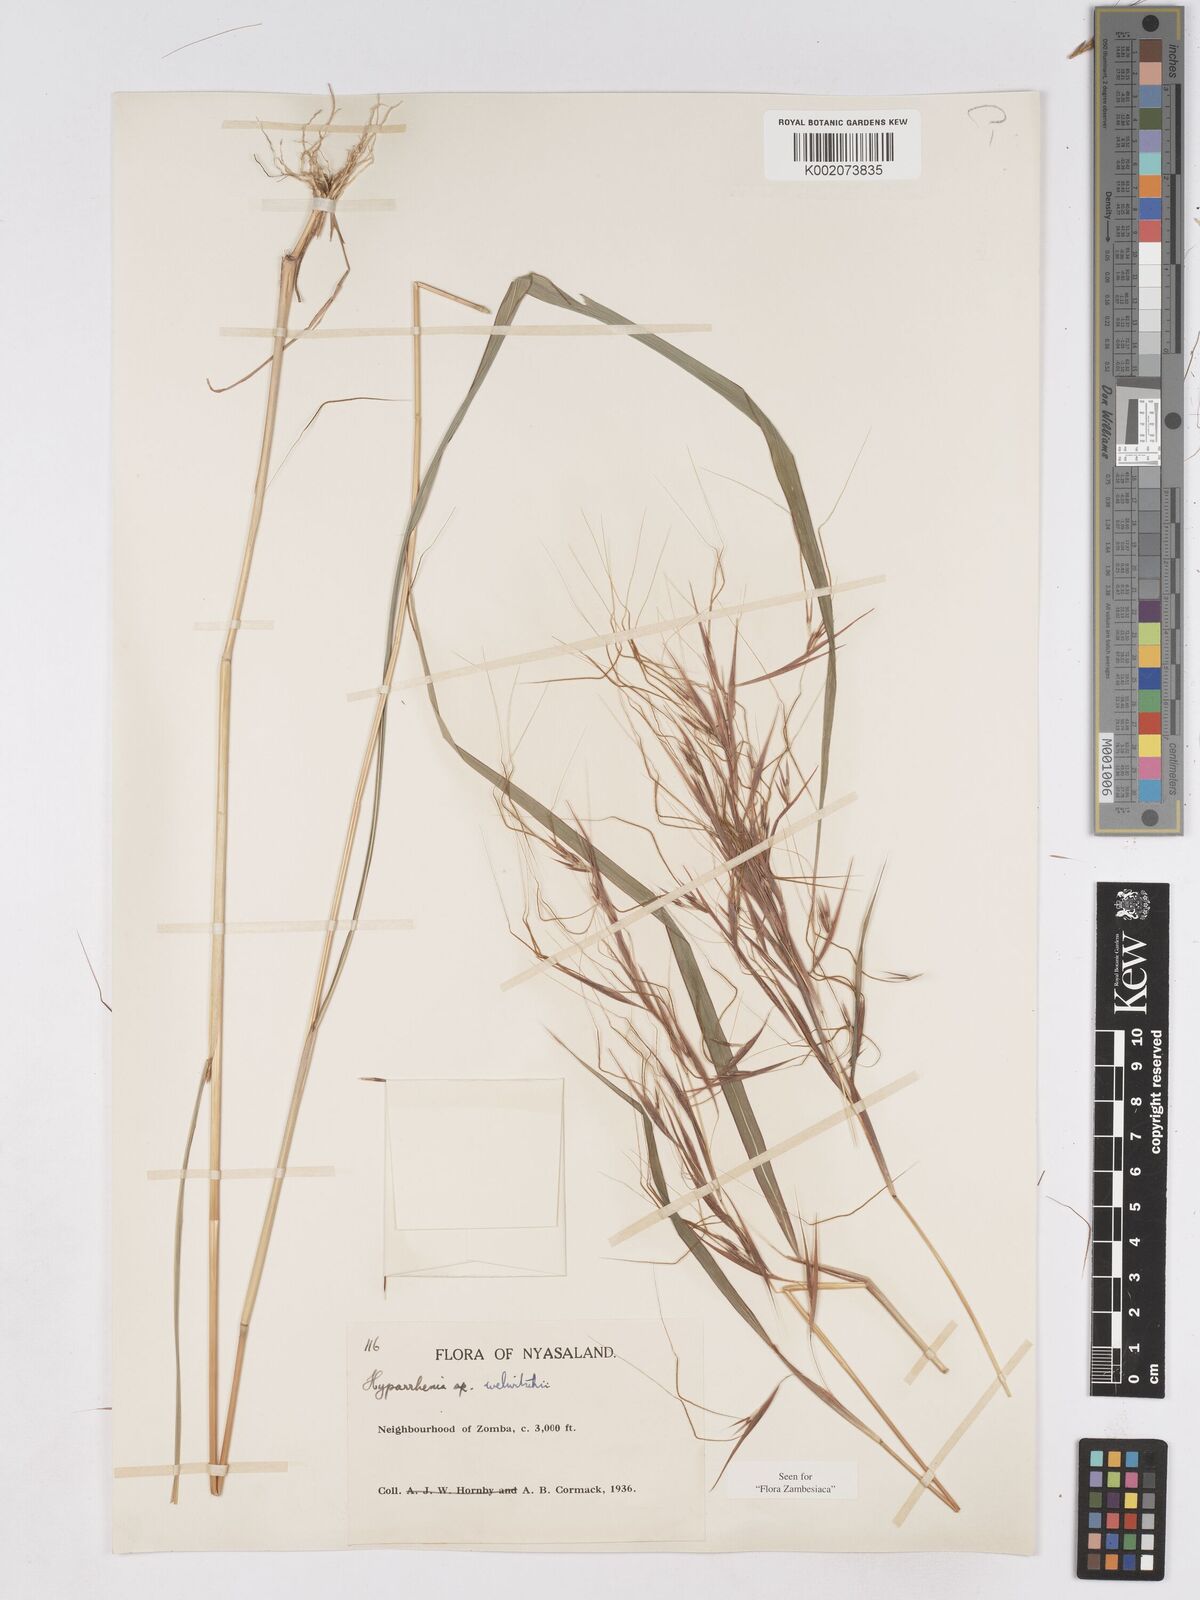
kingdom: Plantae
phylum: Tracheophyta
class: Liliopsida
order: Poales
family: Poaceae
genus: Hyparrhenia
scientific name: Hyparrhenia welwitschii
